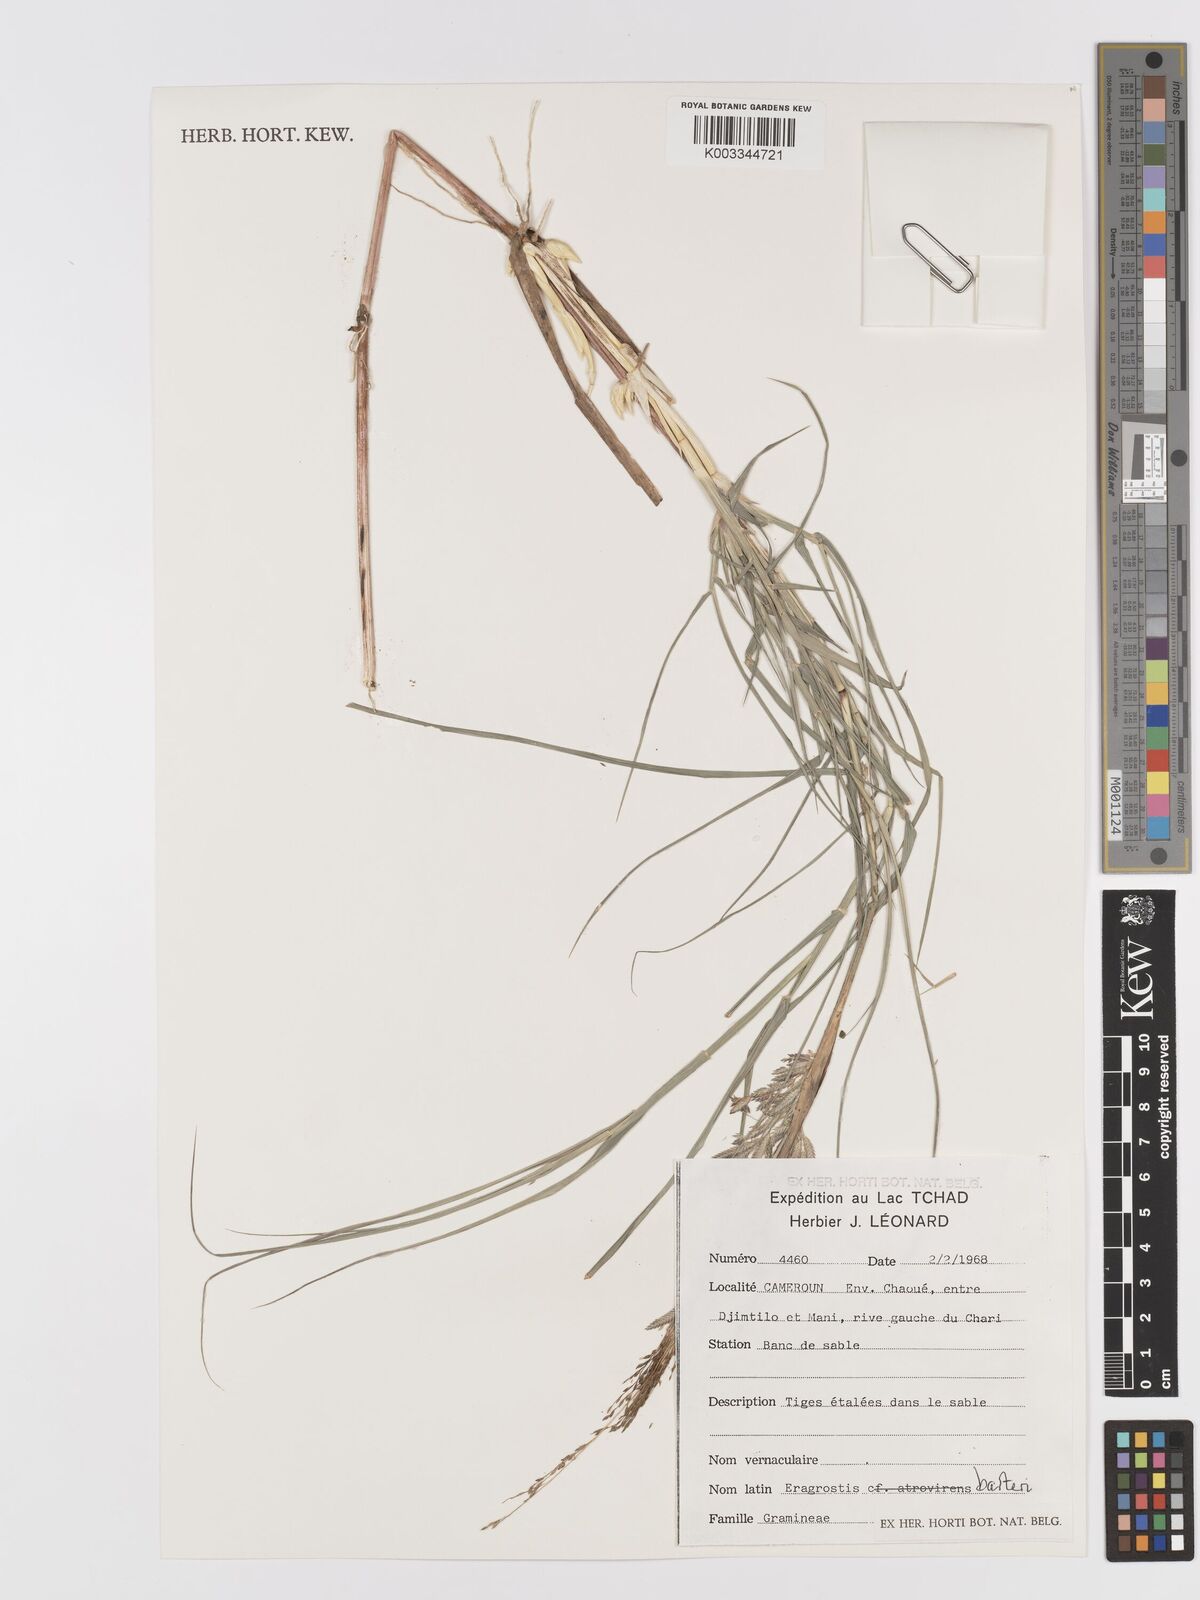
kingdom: Plantae
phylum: Tracheophyta
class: Liliopsida
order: Poales
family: Poaceae
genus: Eragrostis
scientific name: Eragrostis barteri
